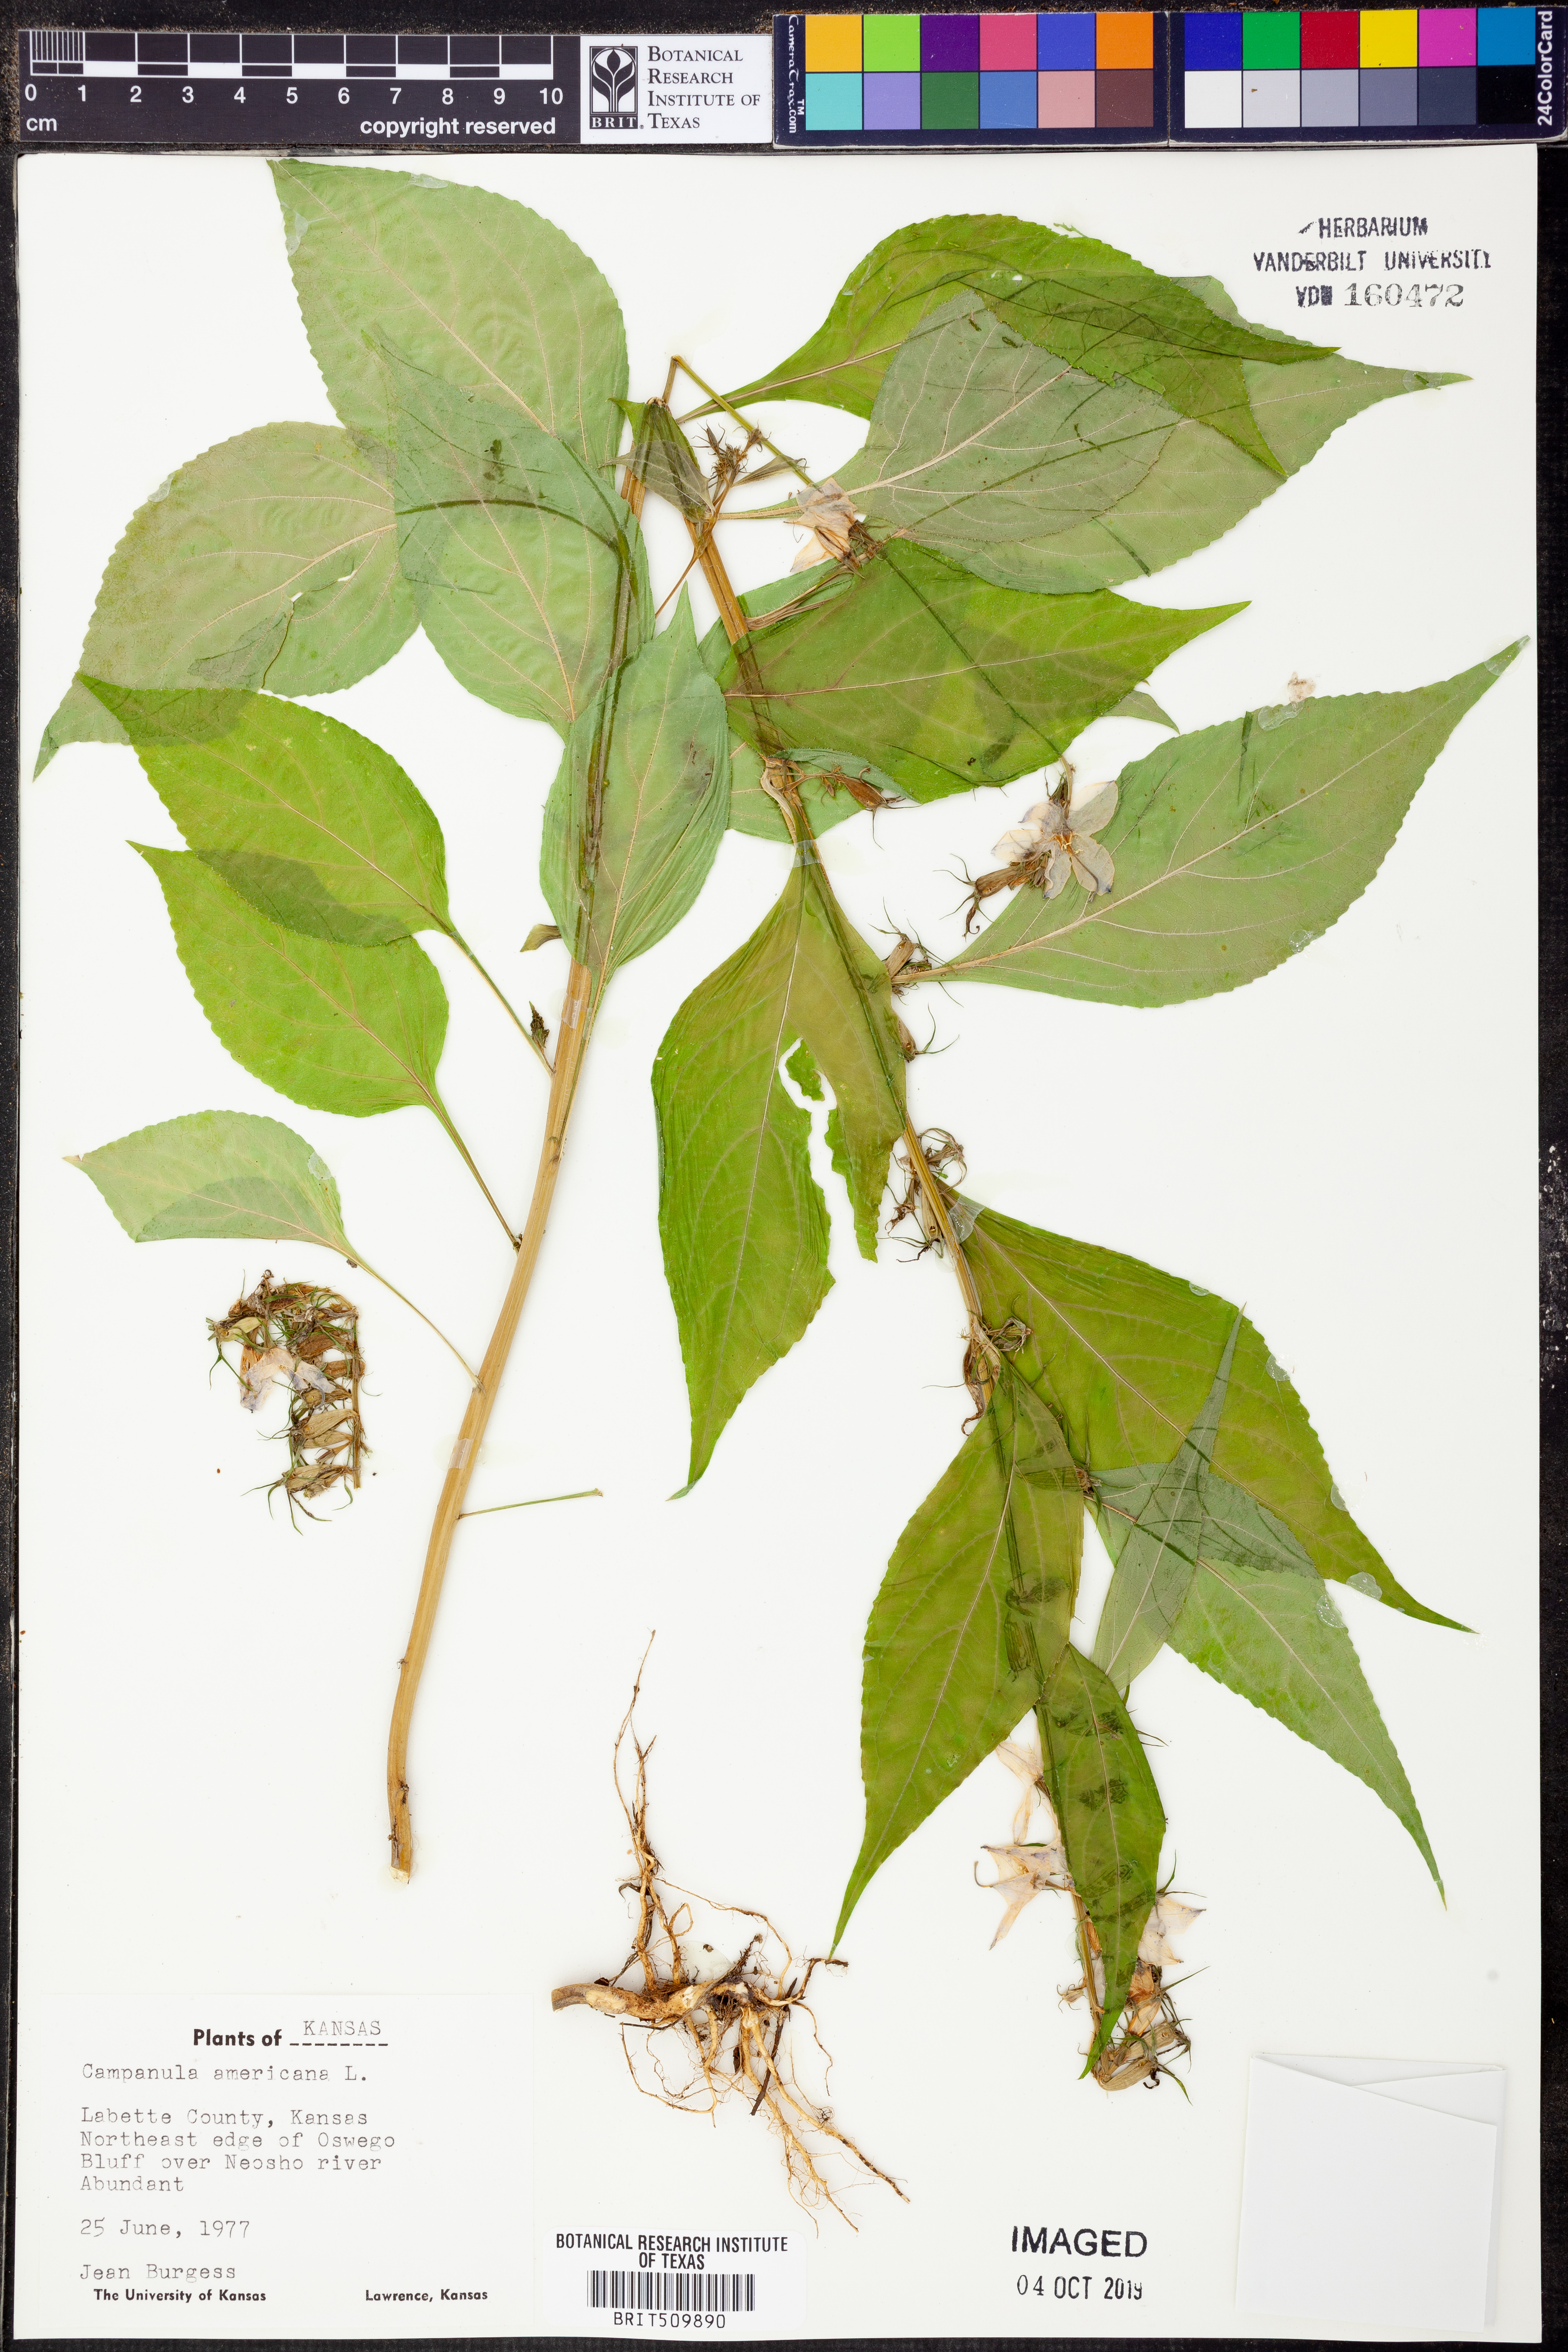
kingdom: Plantae
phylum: Tracheophyta
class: Magnoliopsida
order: Asterales
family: Campanulaceae
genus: Campanula
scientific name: Campanula americana
